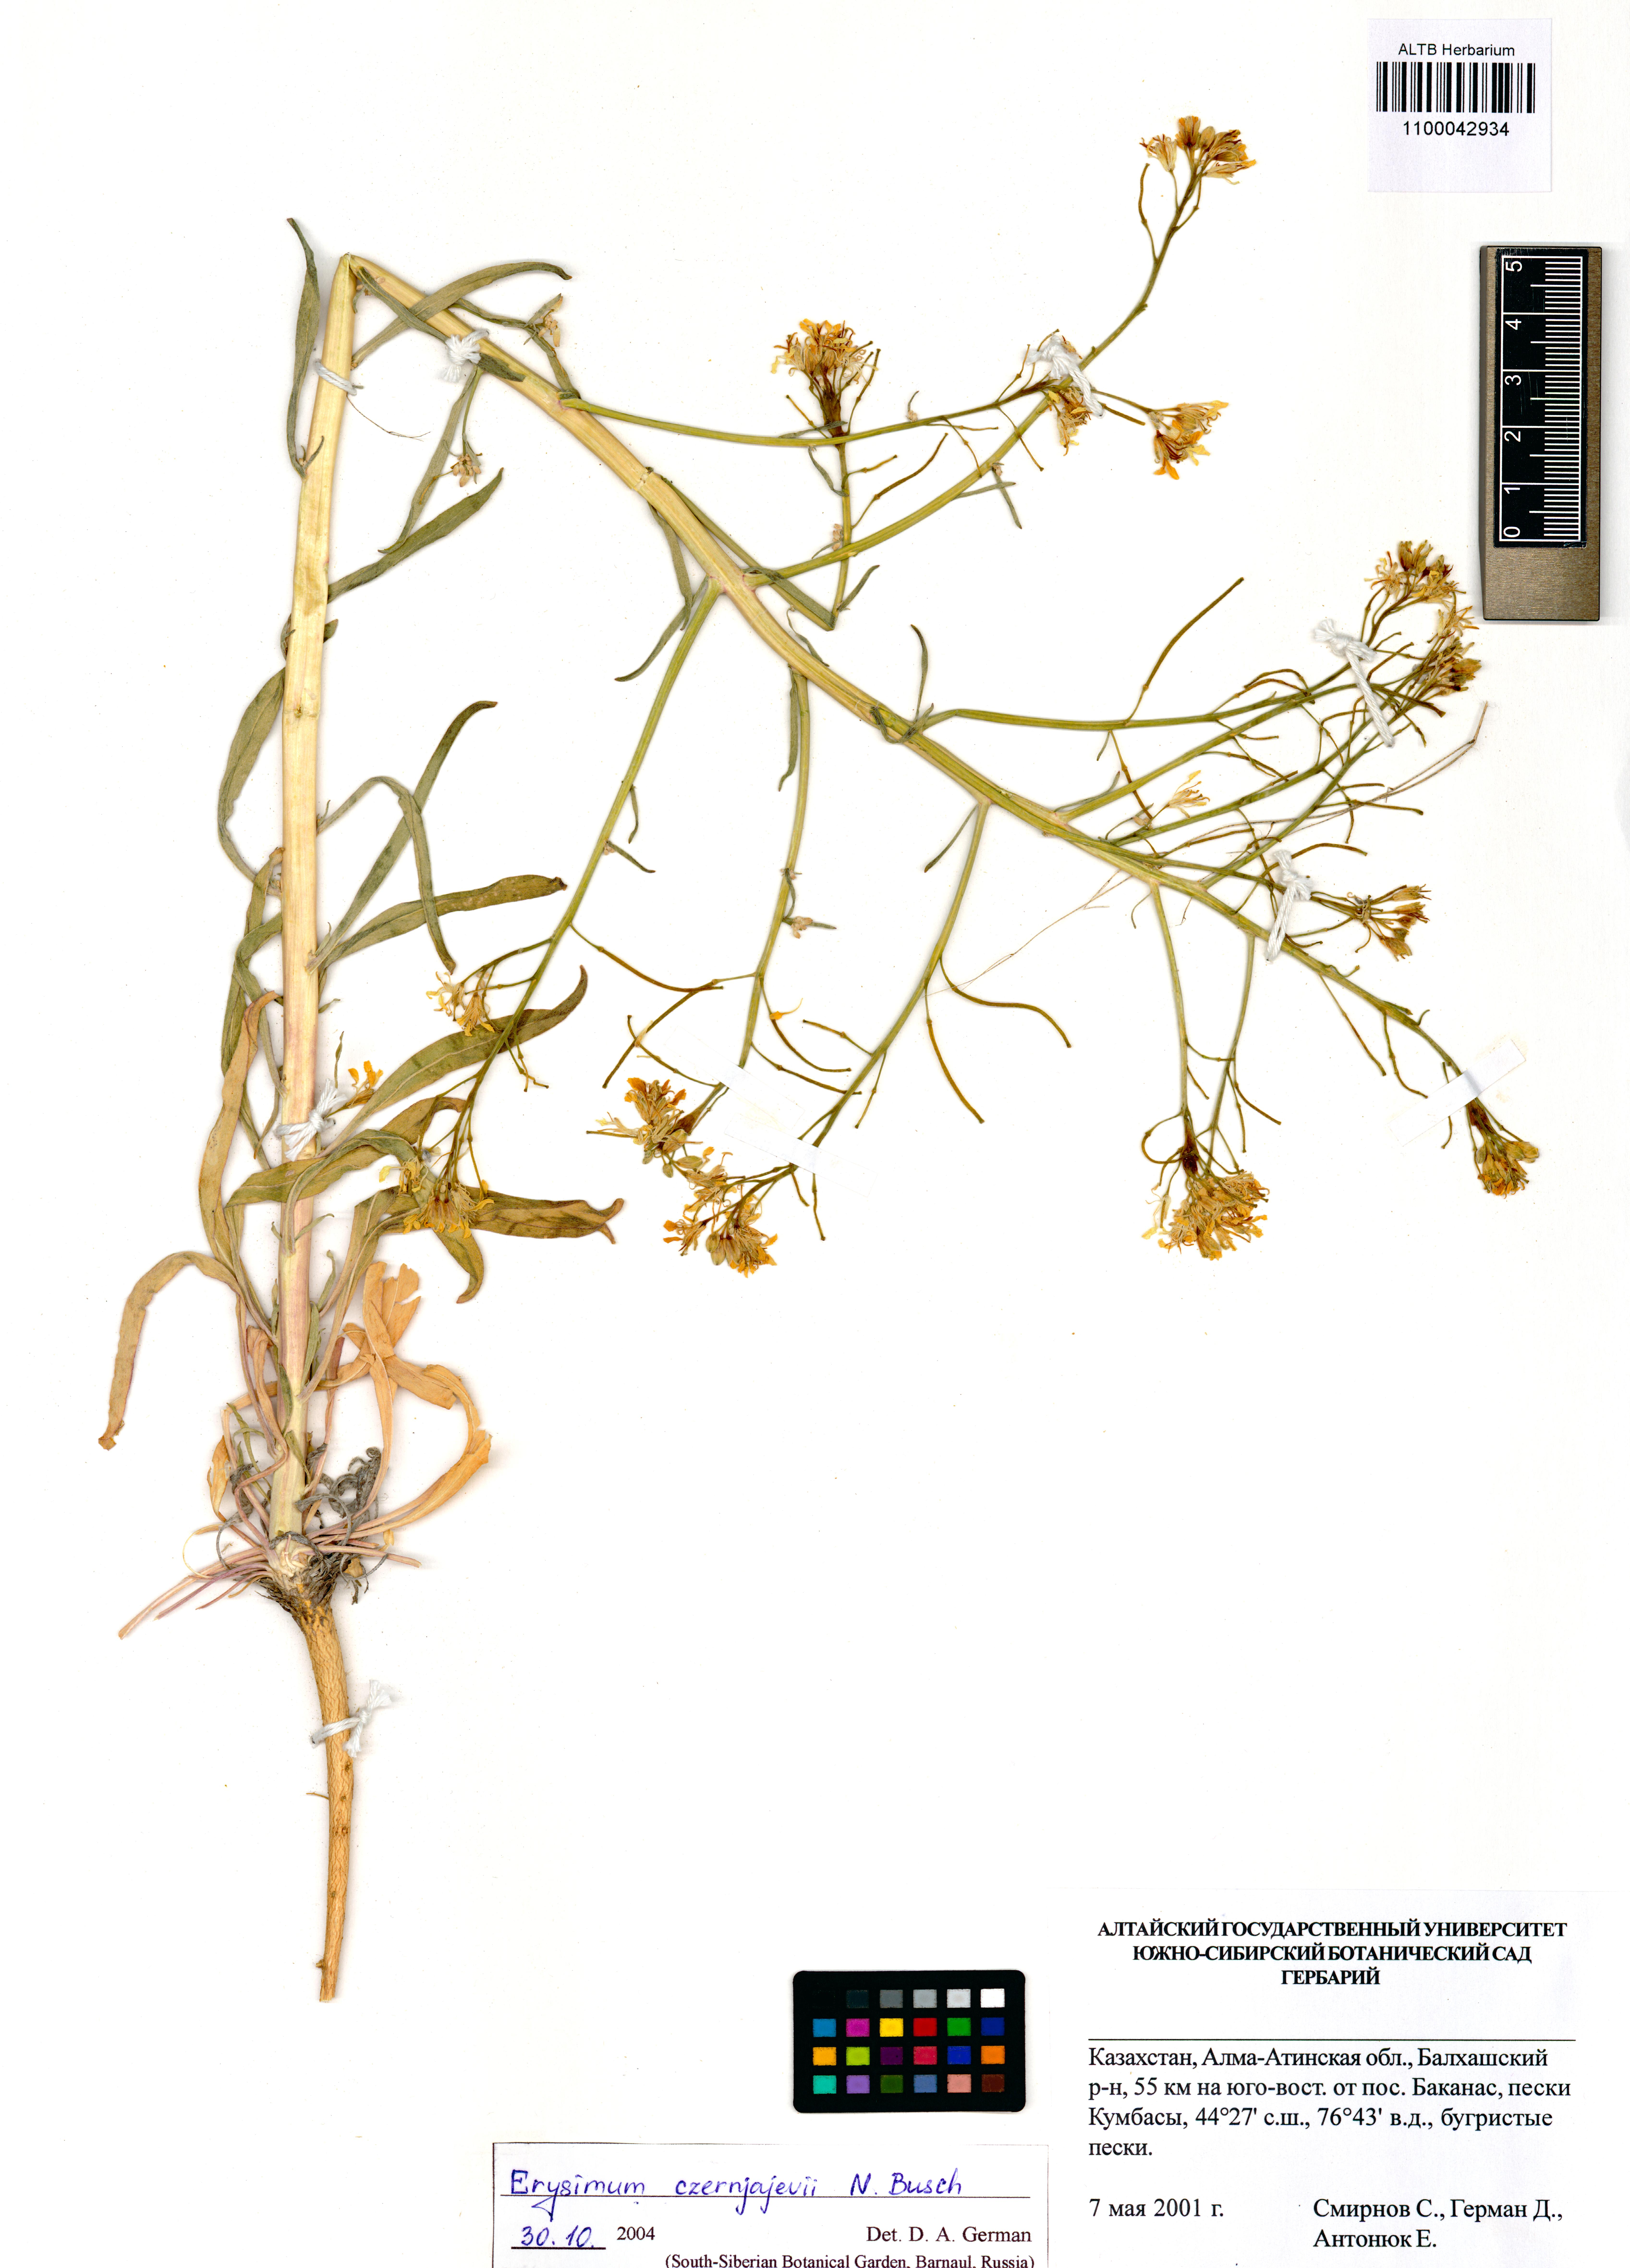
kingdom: Plantae
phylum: Tracheophyta
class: Magnoliopsida
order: Brassicales
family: Brassicaceae
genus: Erysimum
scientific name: Erysimum czernjajevii
